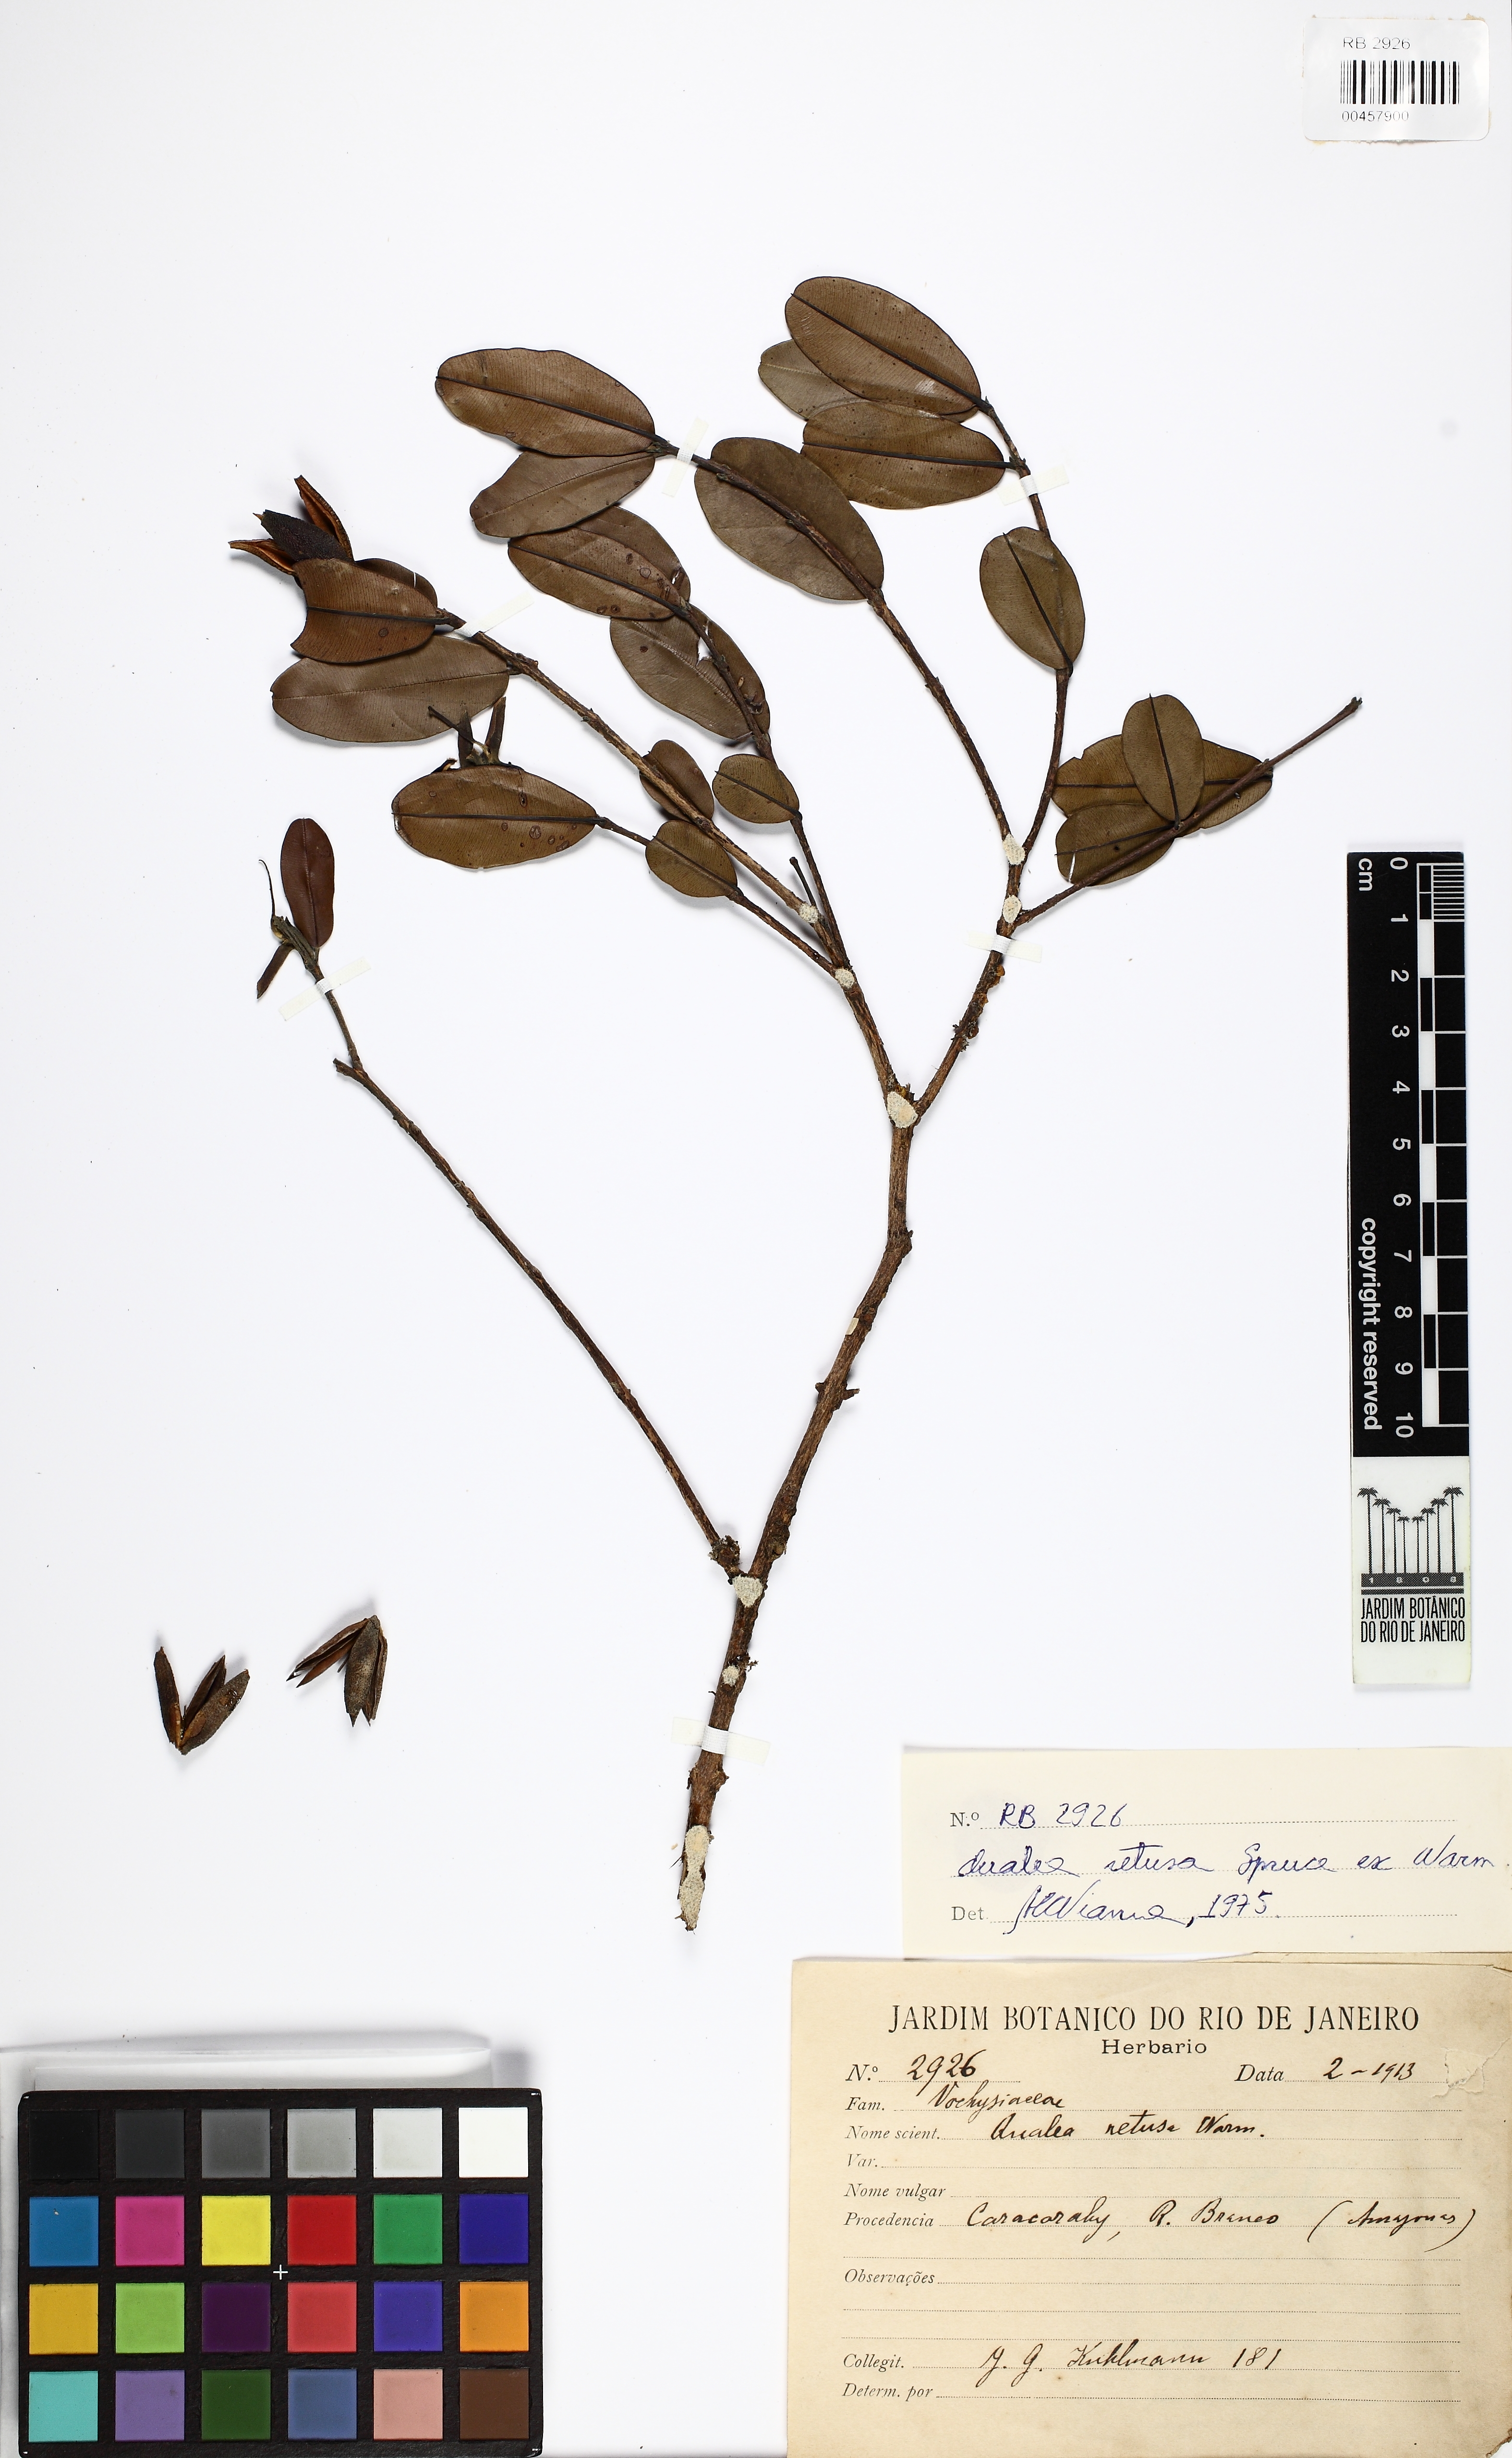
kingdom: Plantae
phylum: Tracheophyta
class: Magnoliopsida
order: Myrtales
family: Vochysiaceae
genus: Ruizterania
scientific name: Ruizterania retusa
